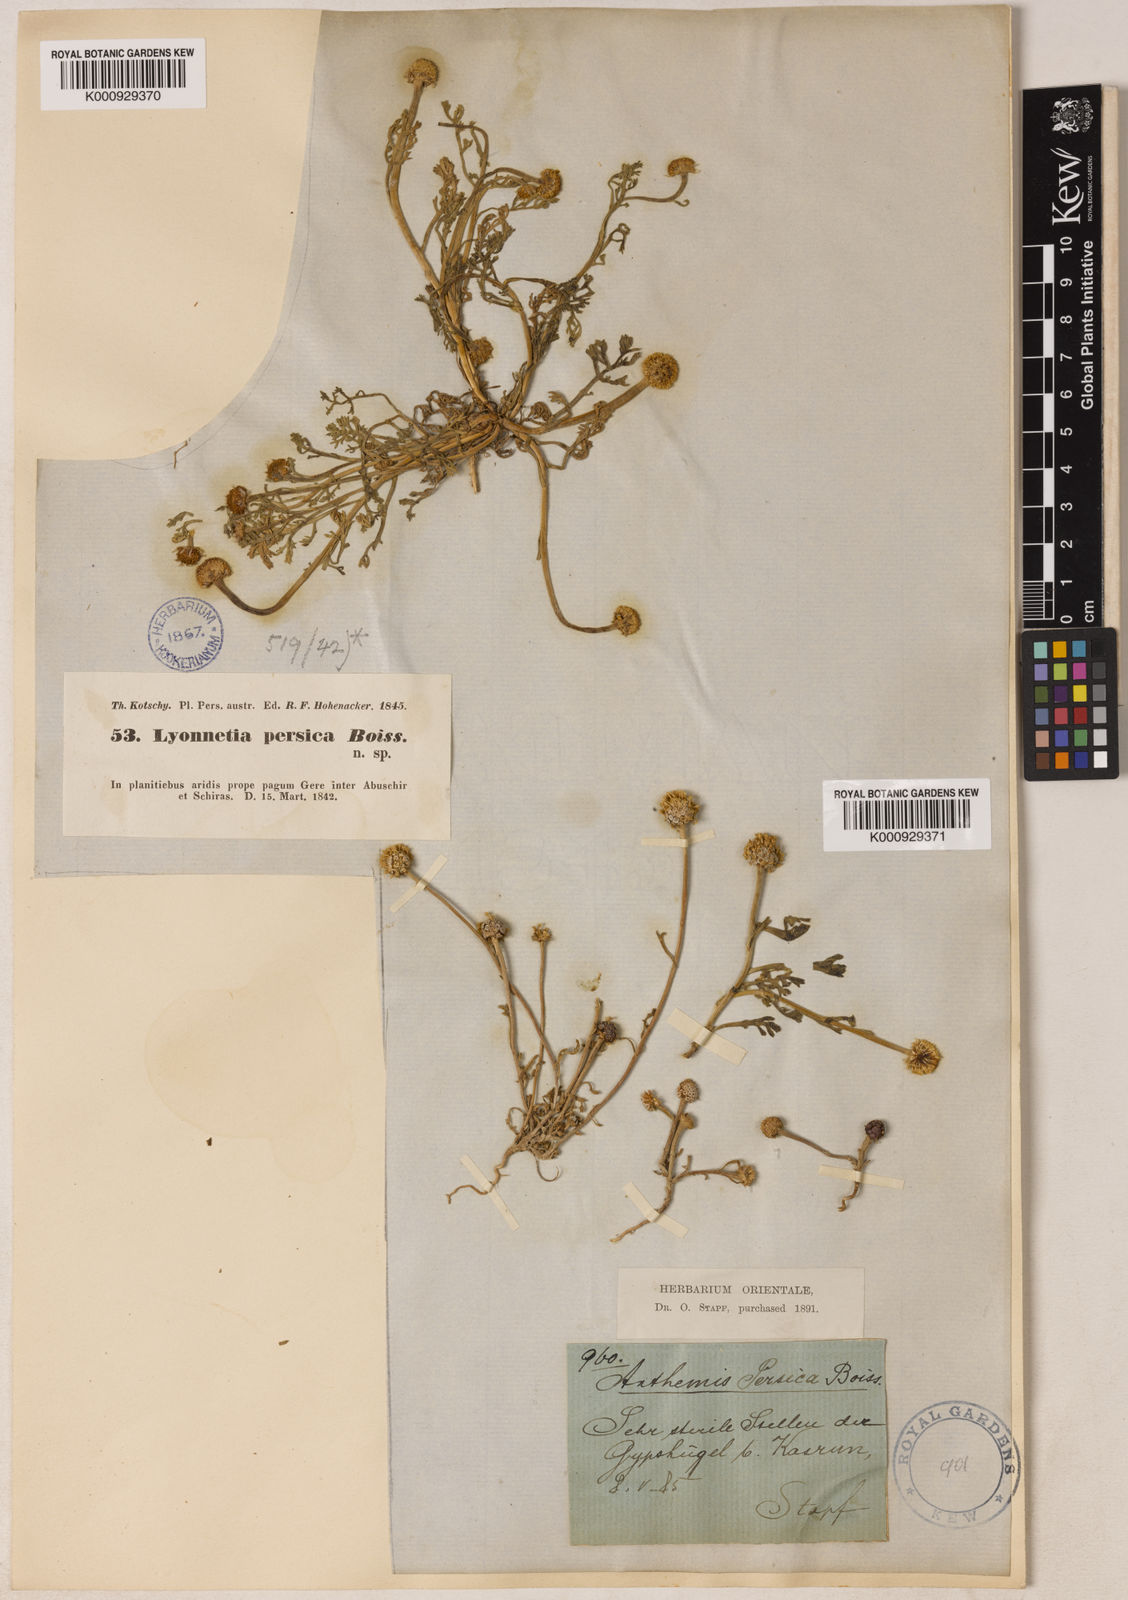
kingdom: Plantae
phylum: Tracheophyta
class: Magnoliopsida
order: Asterales
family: Asteraceae
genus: Anthemis
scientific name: Anthemis persica
